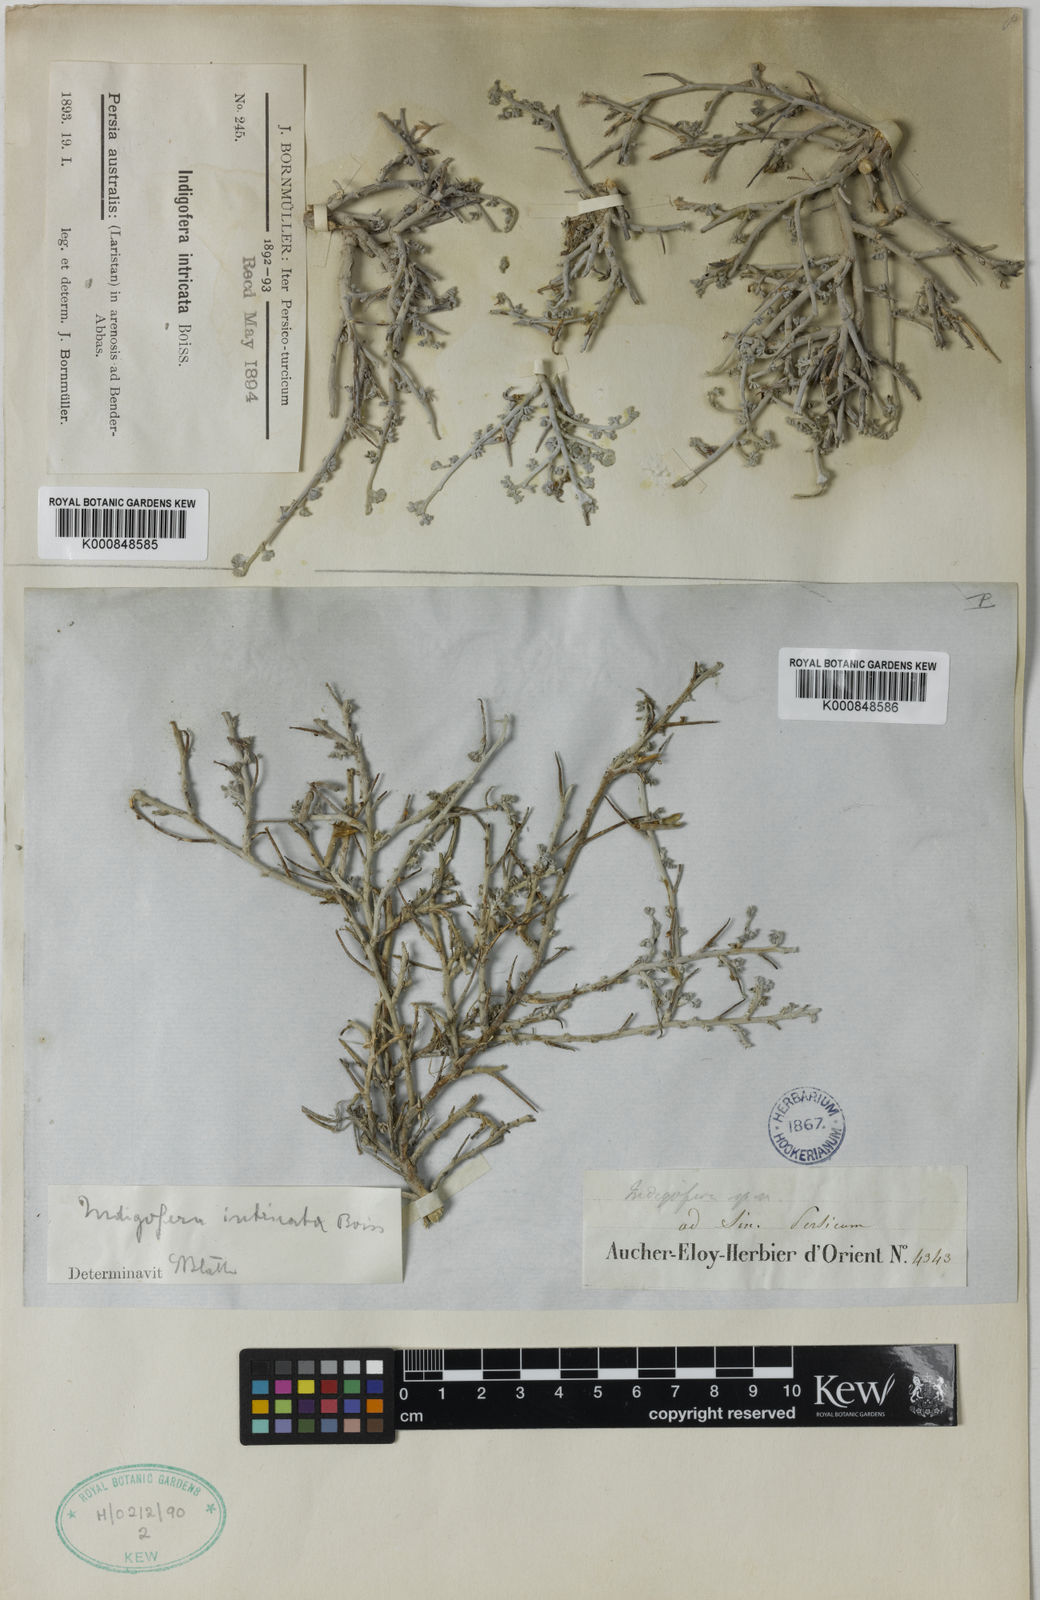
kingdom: Plantae
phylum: Tracheophyta
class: Magnoliopsida
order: Fabales
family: Fabaceae
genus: Indigofera
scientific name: Indigofera intricata
